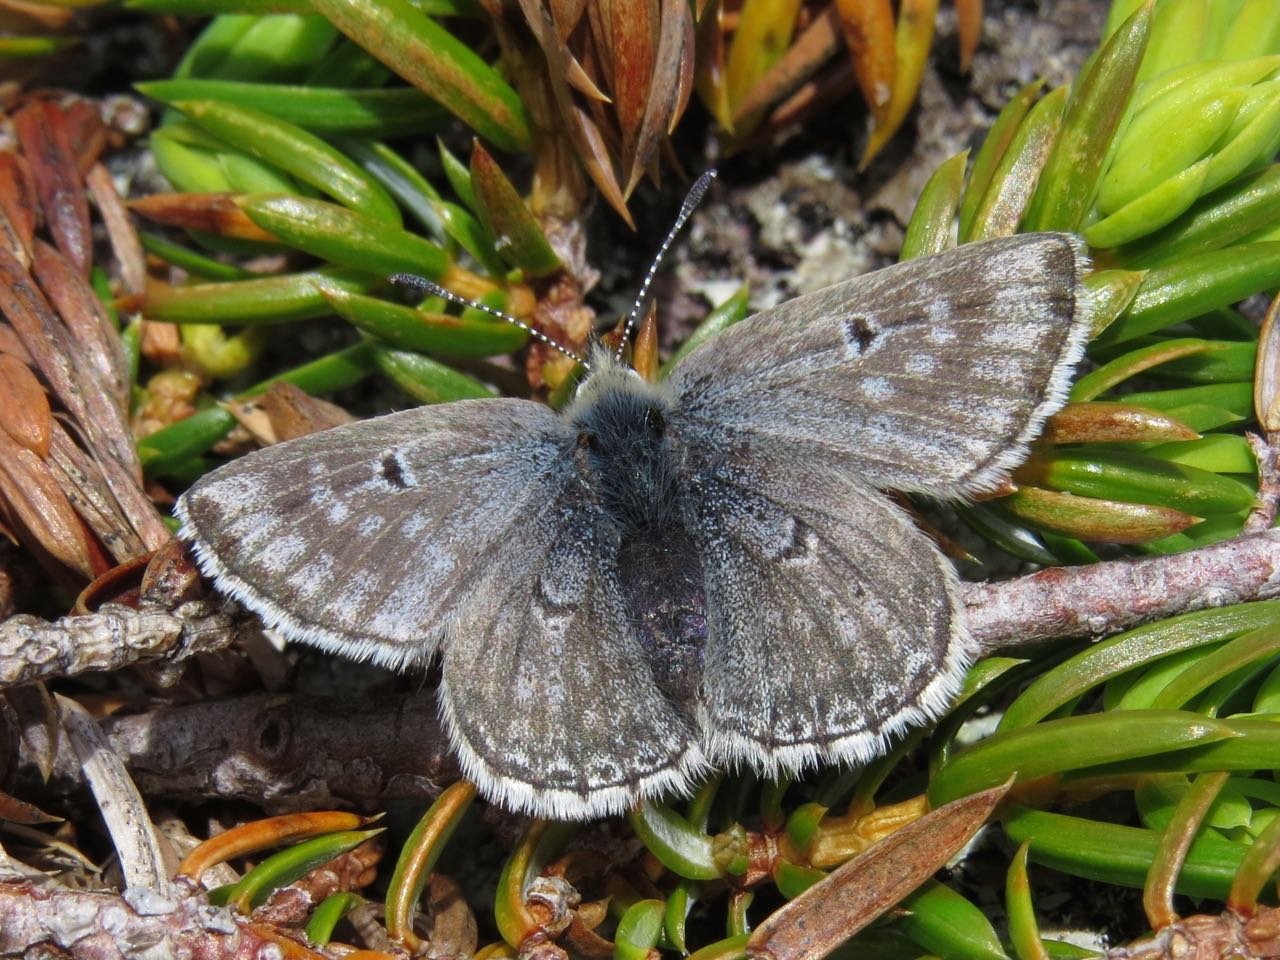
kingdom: Animalia
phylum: Arthropoda
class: Insecta
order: Lepidoptera
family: Lycaenidae
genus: Agriades
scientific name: Agriades glandon
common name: Arctic Blue
